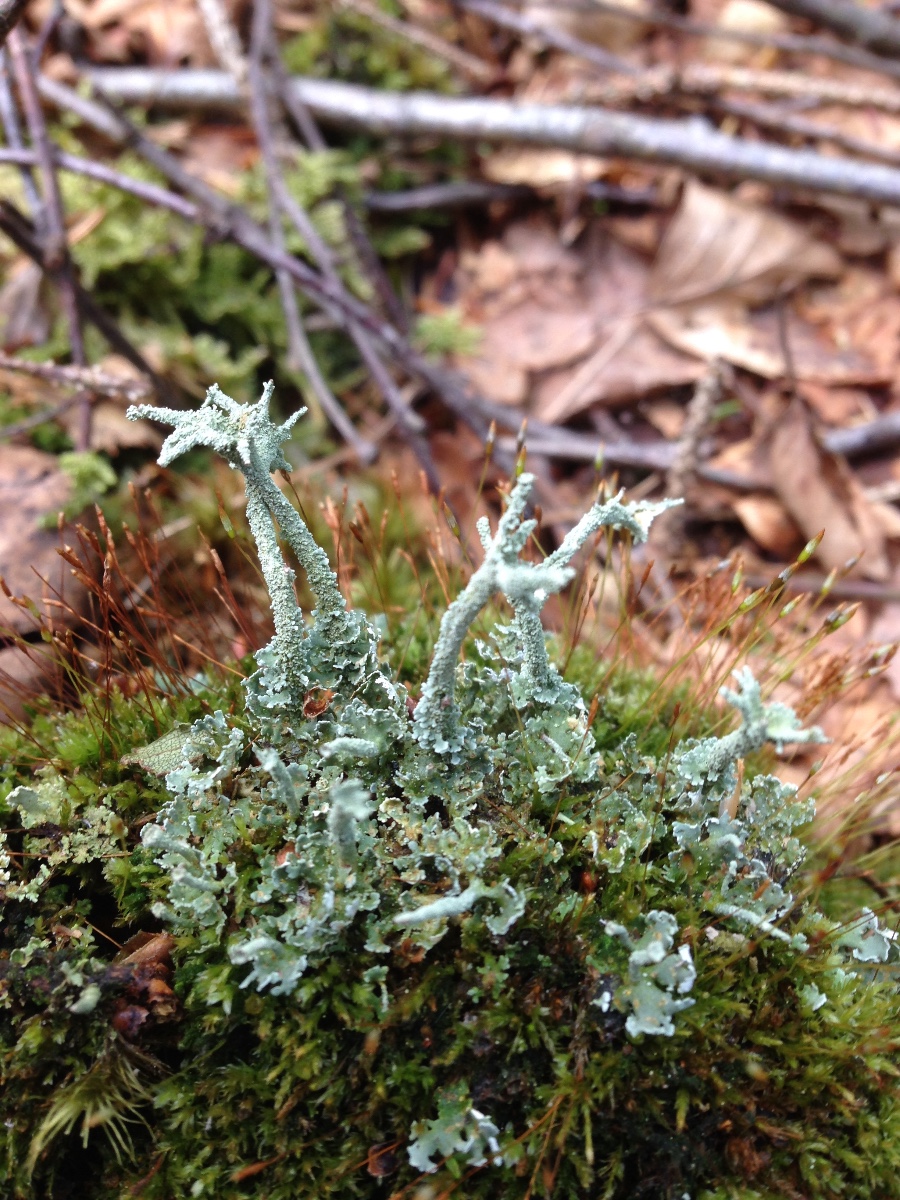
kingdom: Fungi
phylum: Ascomycota
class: Lecanoromycetes
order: Lecanorales
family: Cladoniaceae
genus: Cladonia
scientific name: Cladonia polydactyla
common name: vifte-bægerlav
